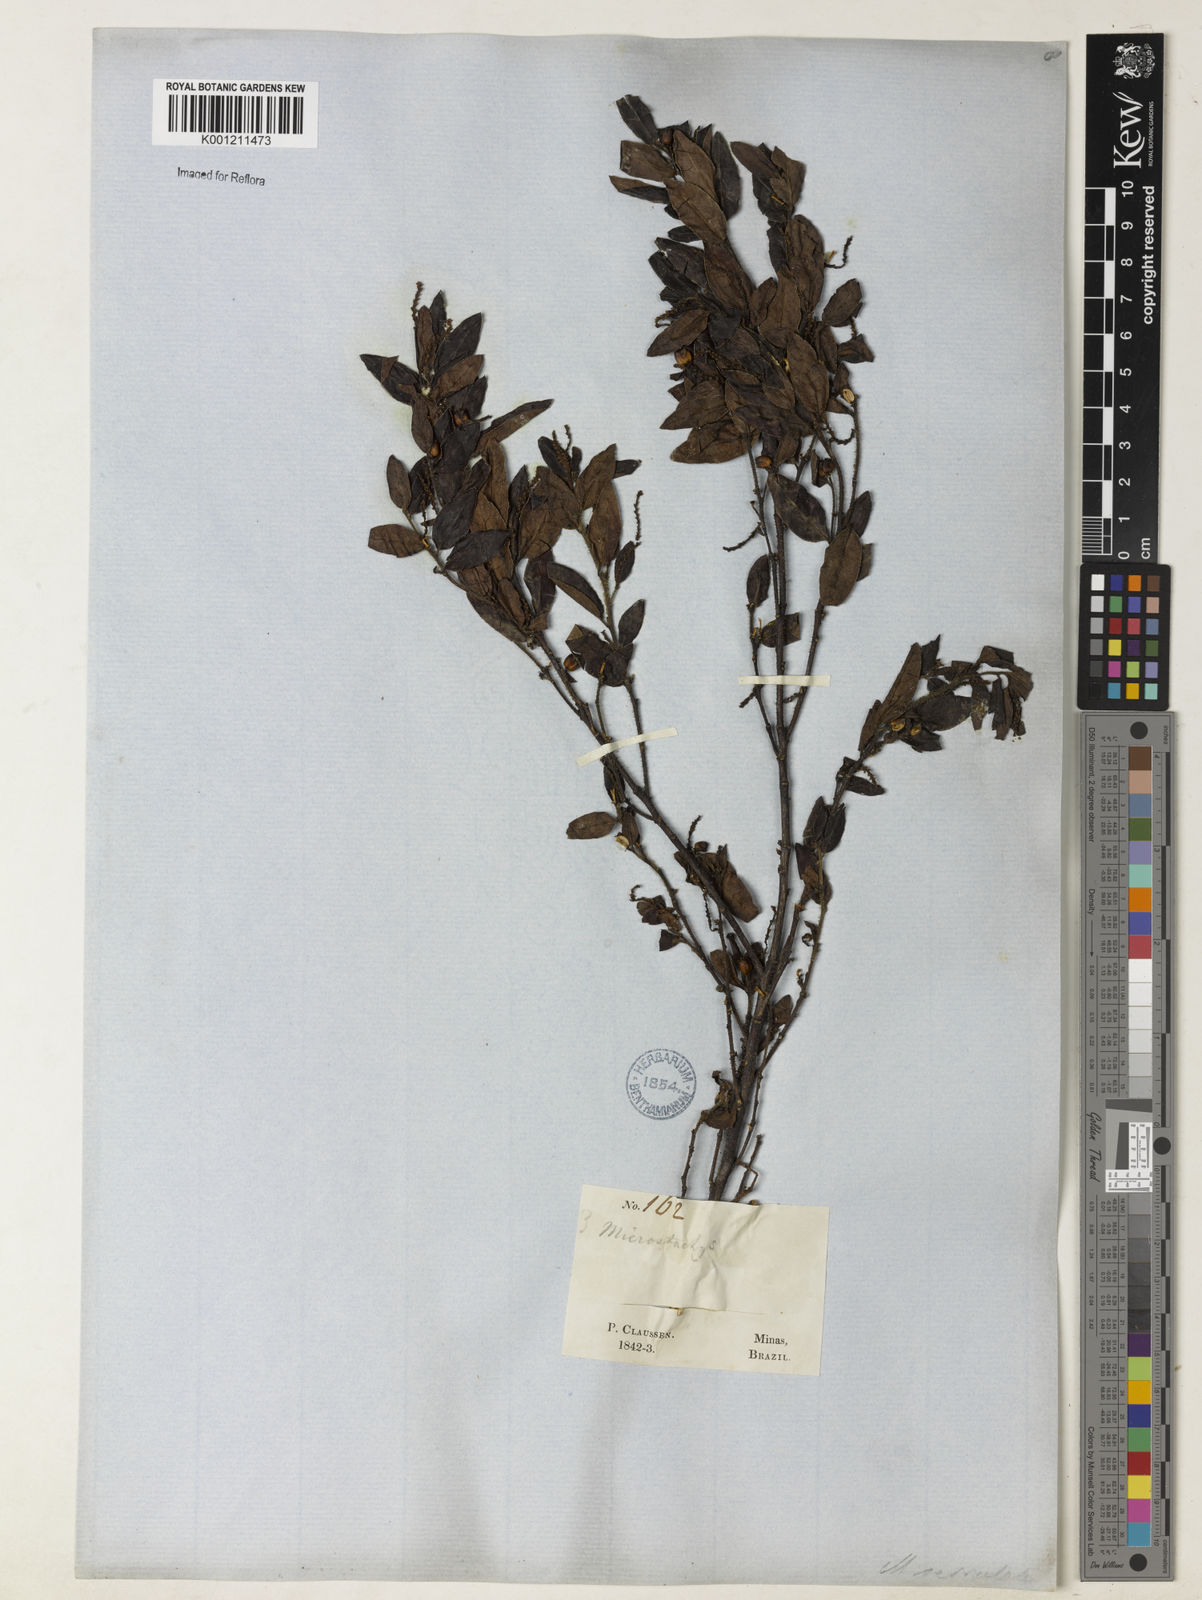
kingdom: Plantae
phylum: Tracheophyta
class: Magnoliopsida
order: Malpighiales
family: Euphorbiaceae
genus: Microstachys
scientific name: Microstachys glandulosa
